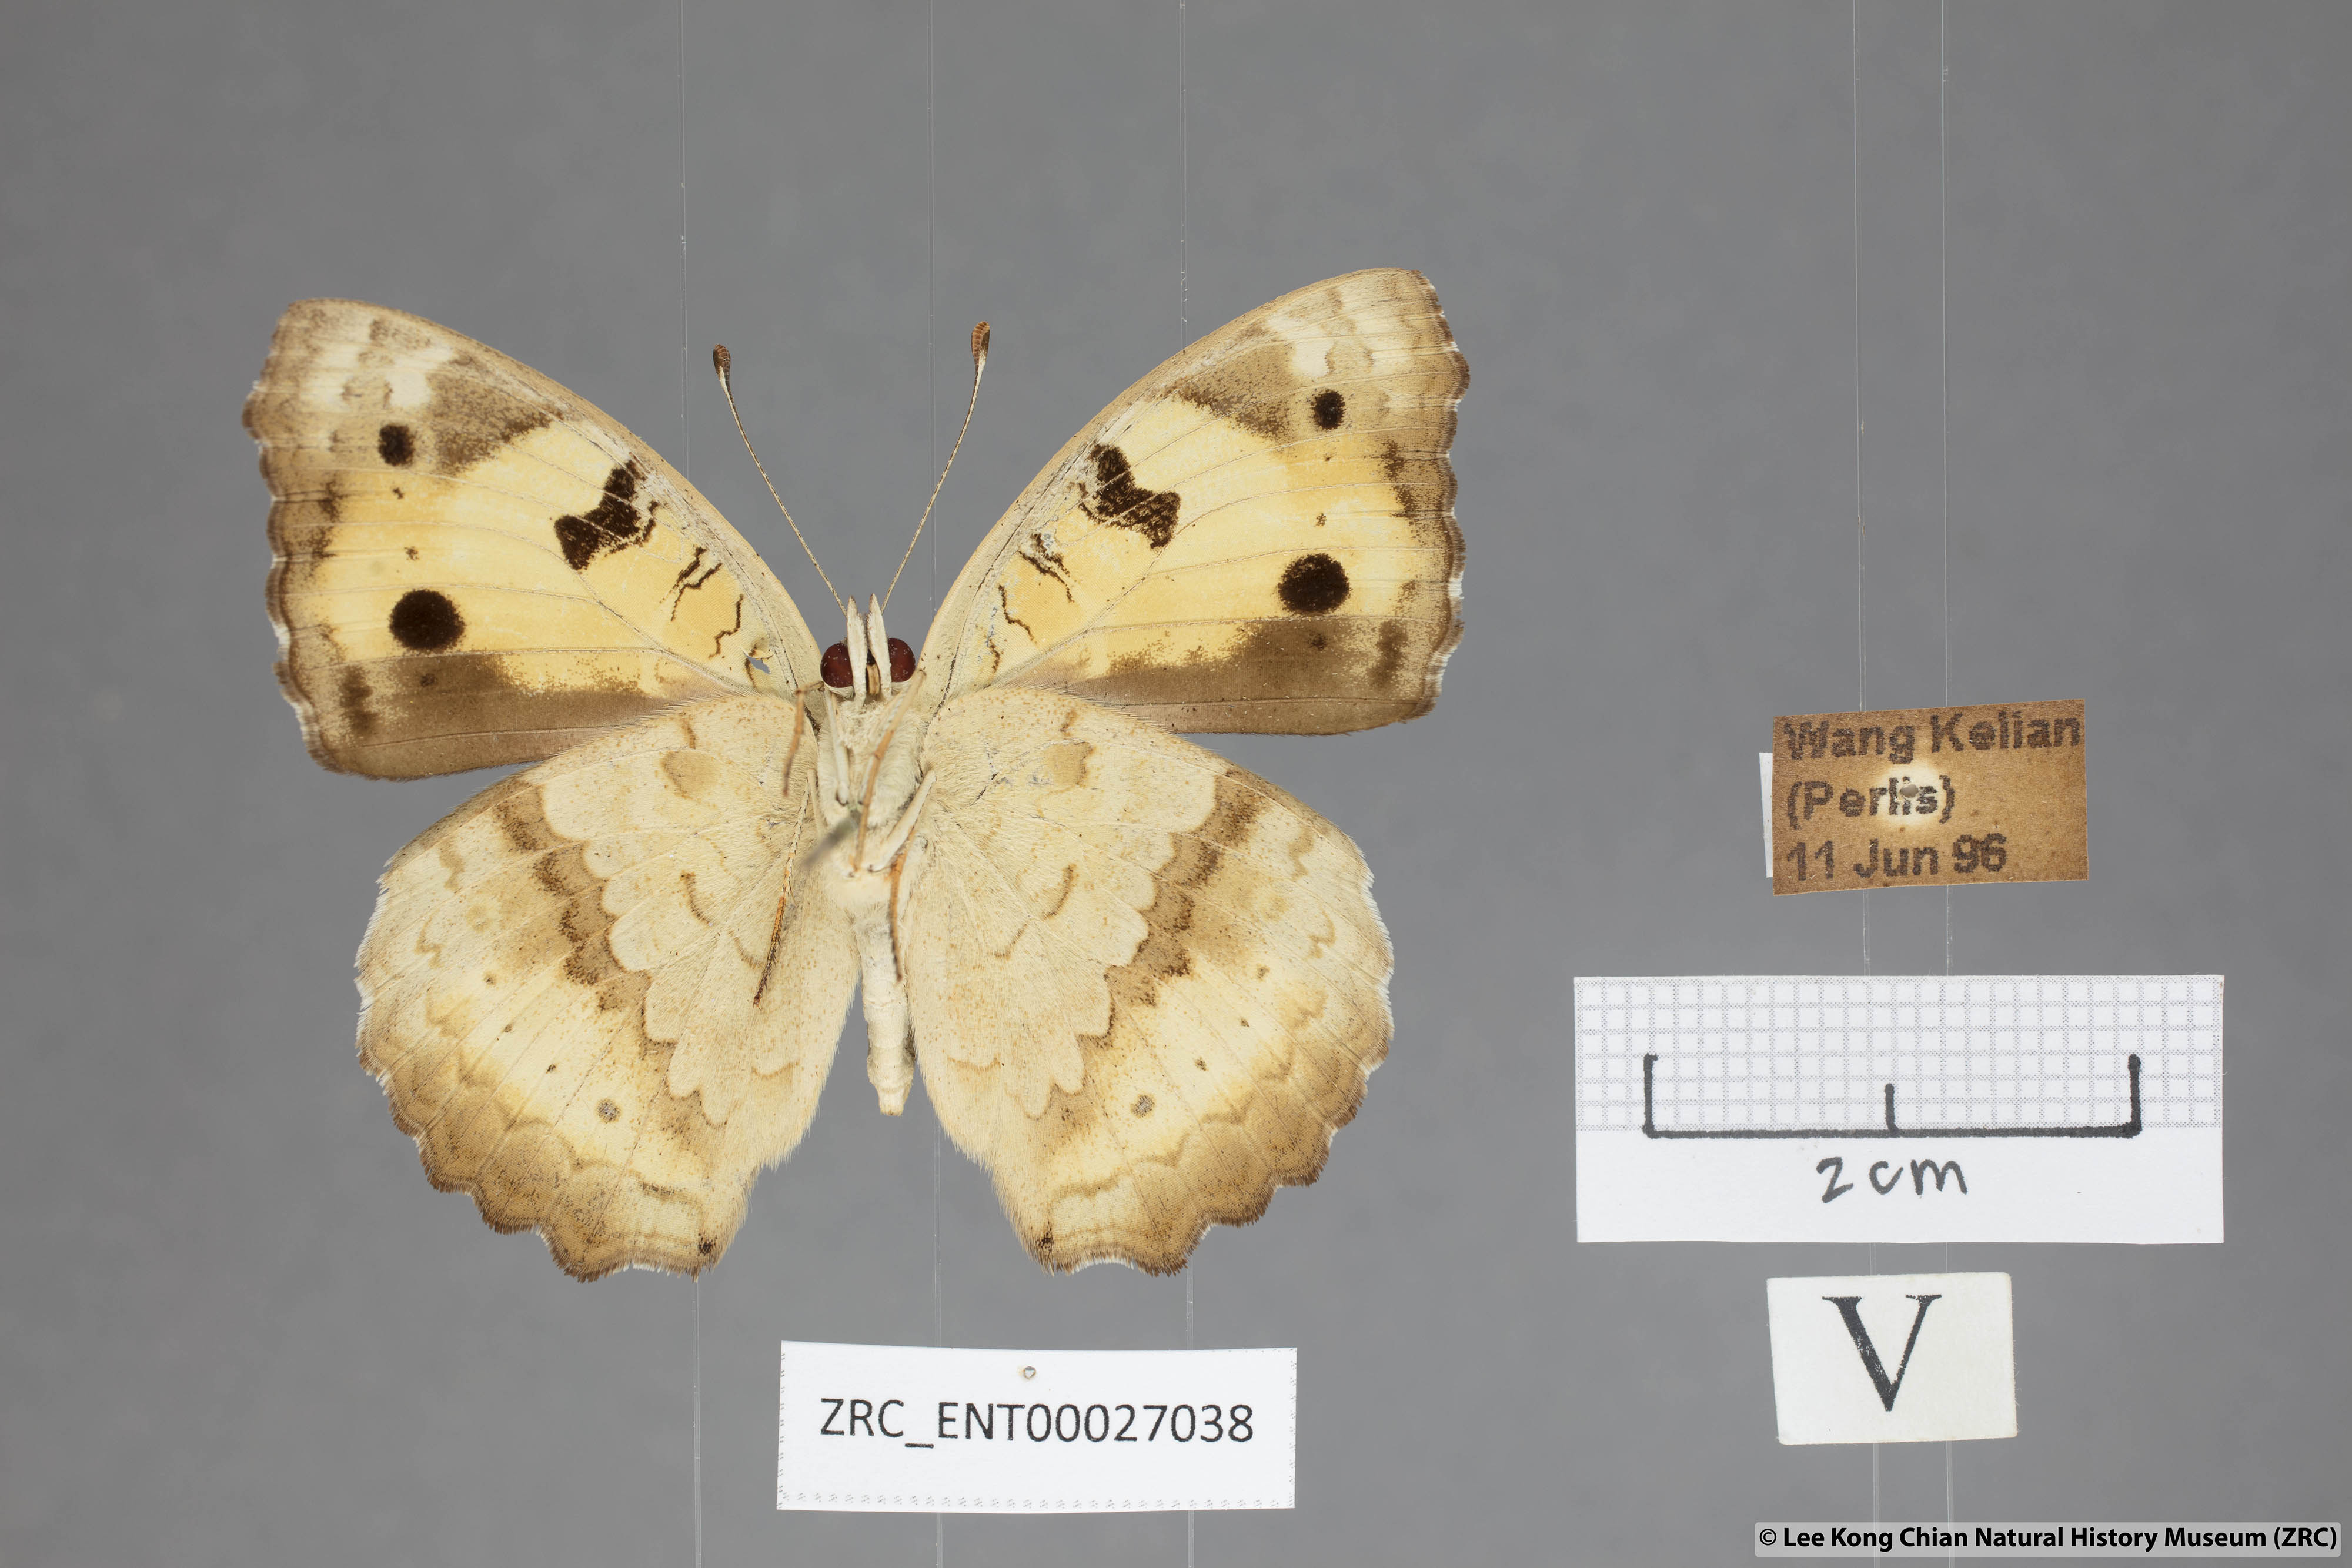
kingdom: Animalia
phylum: Arthropoda
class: Insecta
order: Lepidoptera
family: Nymphalidae
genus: Junonia
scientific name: Junonia hierta
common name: Yellow pansy
